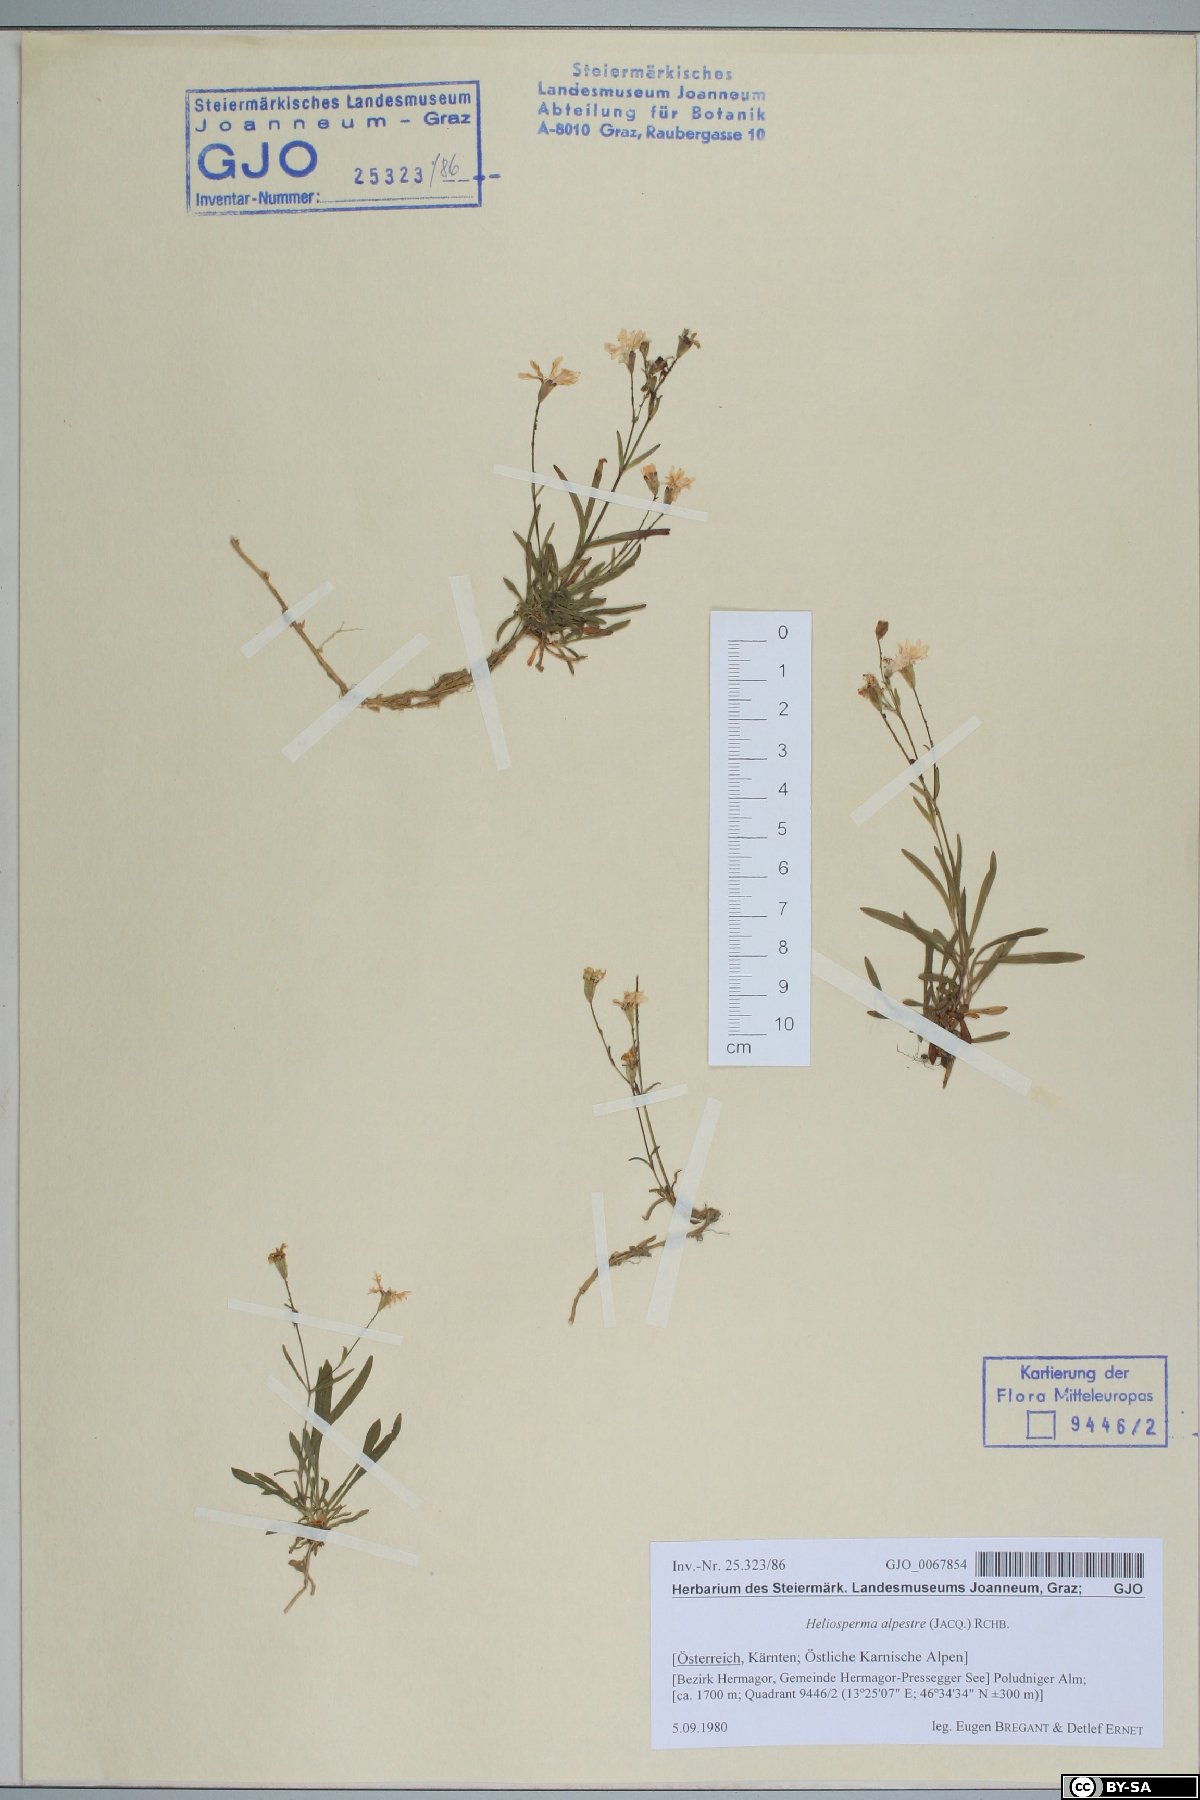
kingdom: Plantae
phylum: Tracheophyta
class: Magnoliopsida
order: Caryophyllales
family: Caryophyllaceae
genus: Heliosperma
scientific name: Heliosperma alpestre
